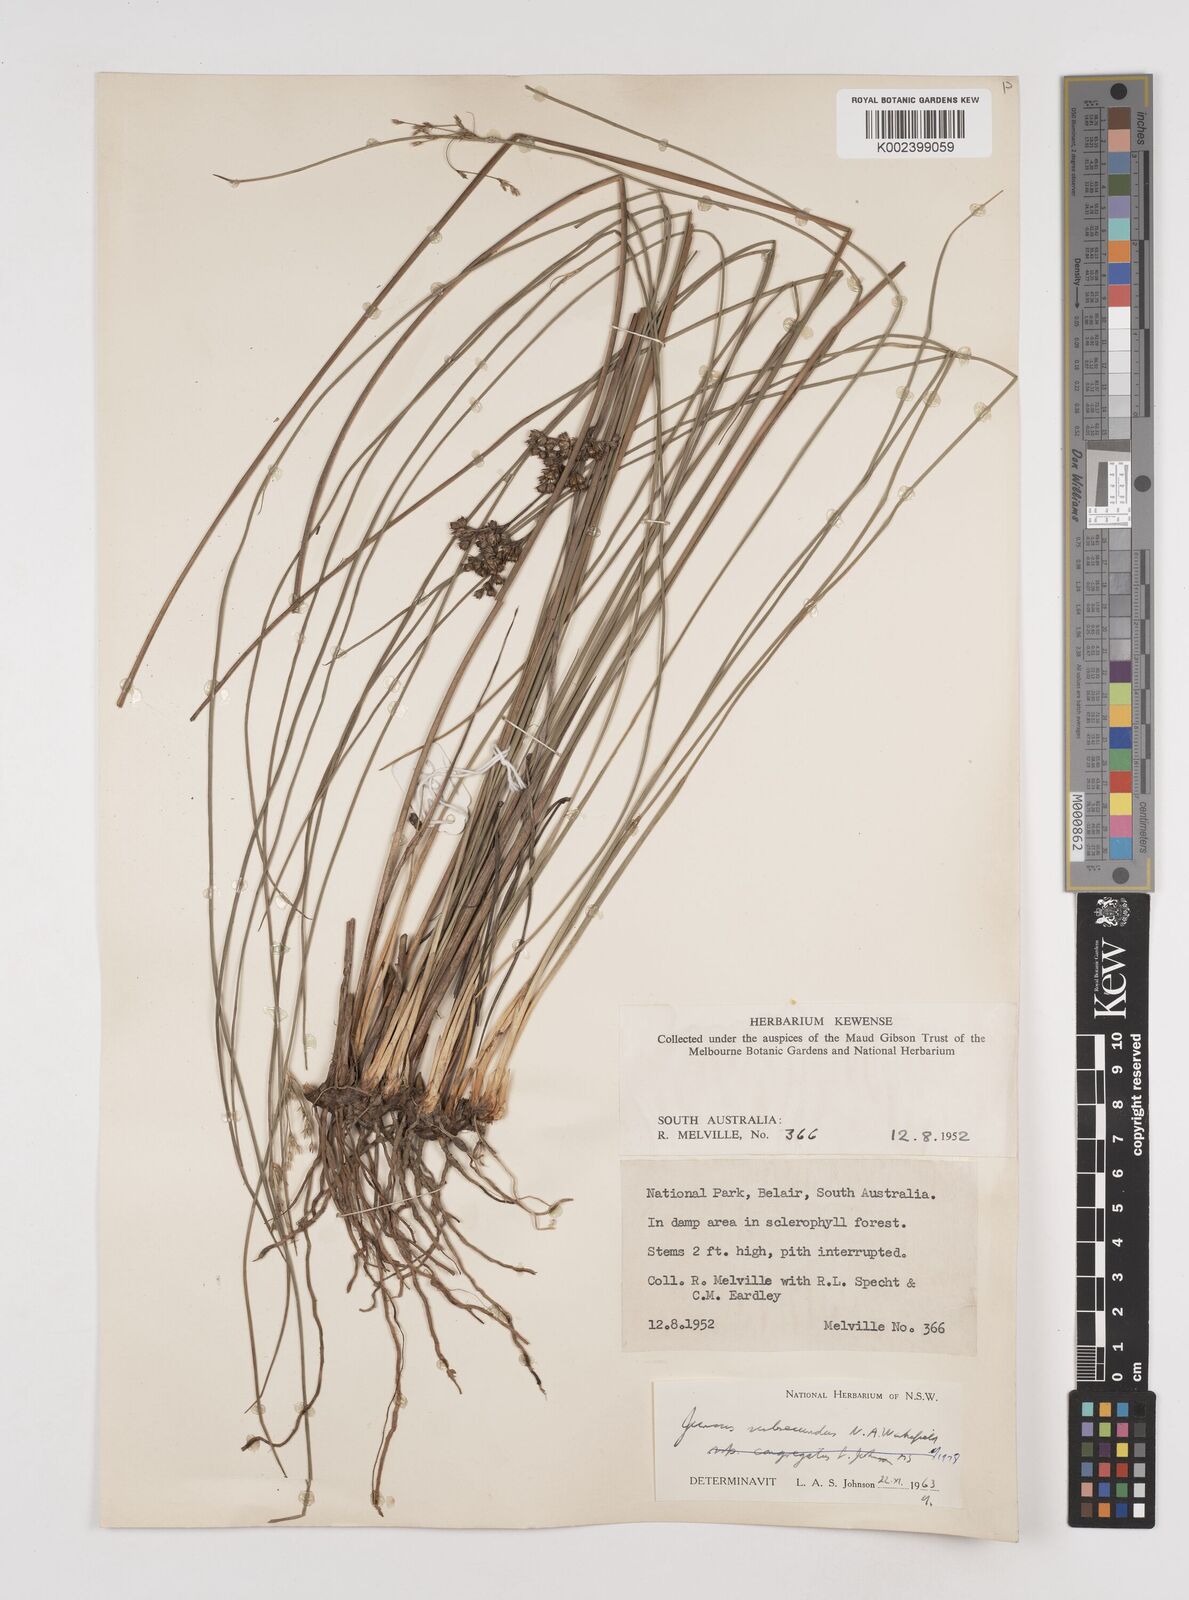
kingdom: Plantae
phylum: Tracheophyta
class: Liliopsida
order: Poales
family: Juncaceae
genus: Juncus
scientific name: Juncus subsecundus
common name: Fingered rush
